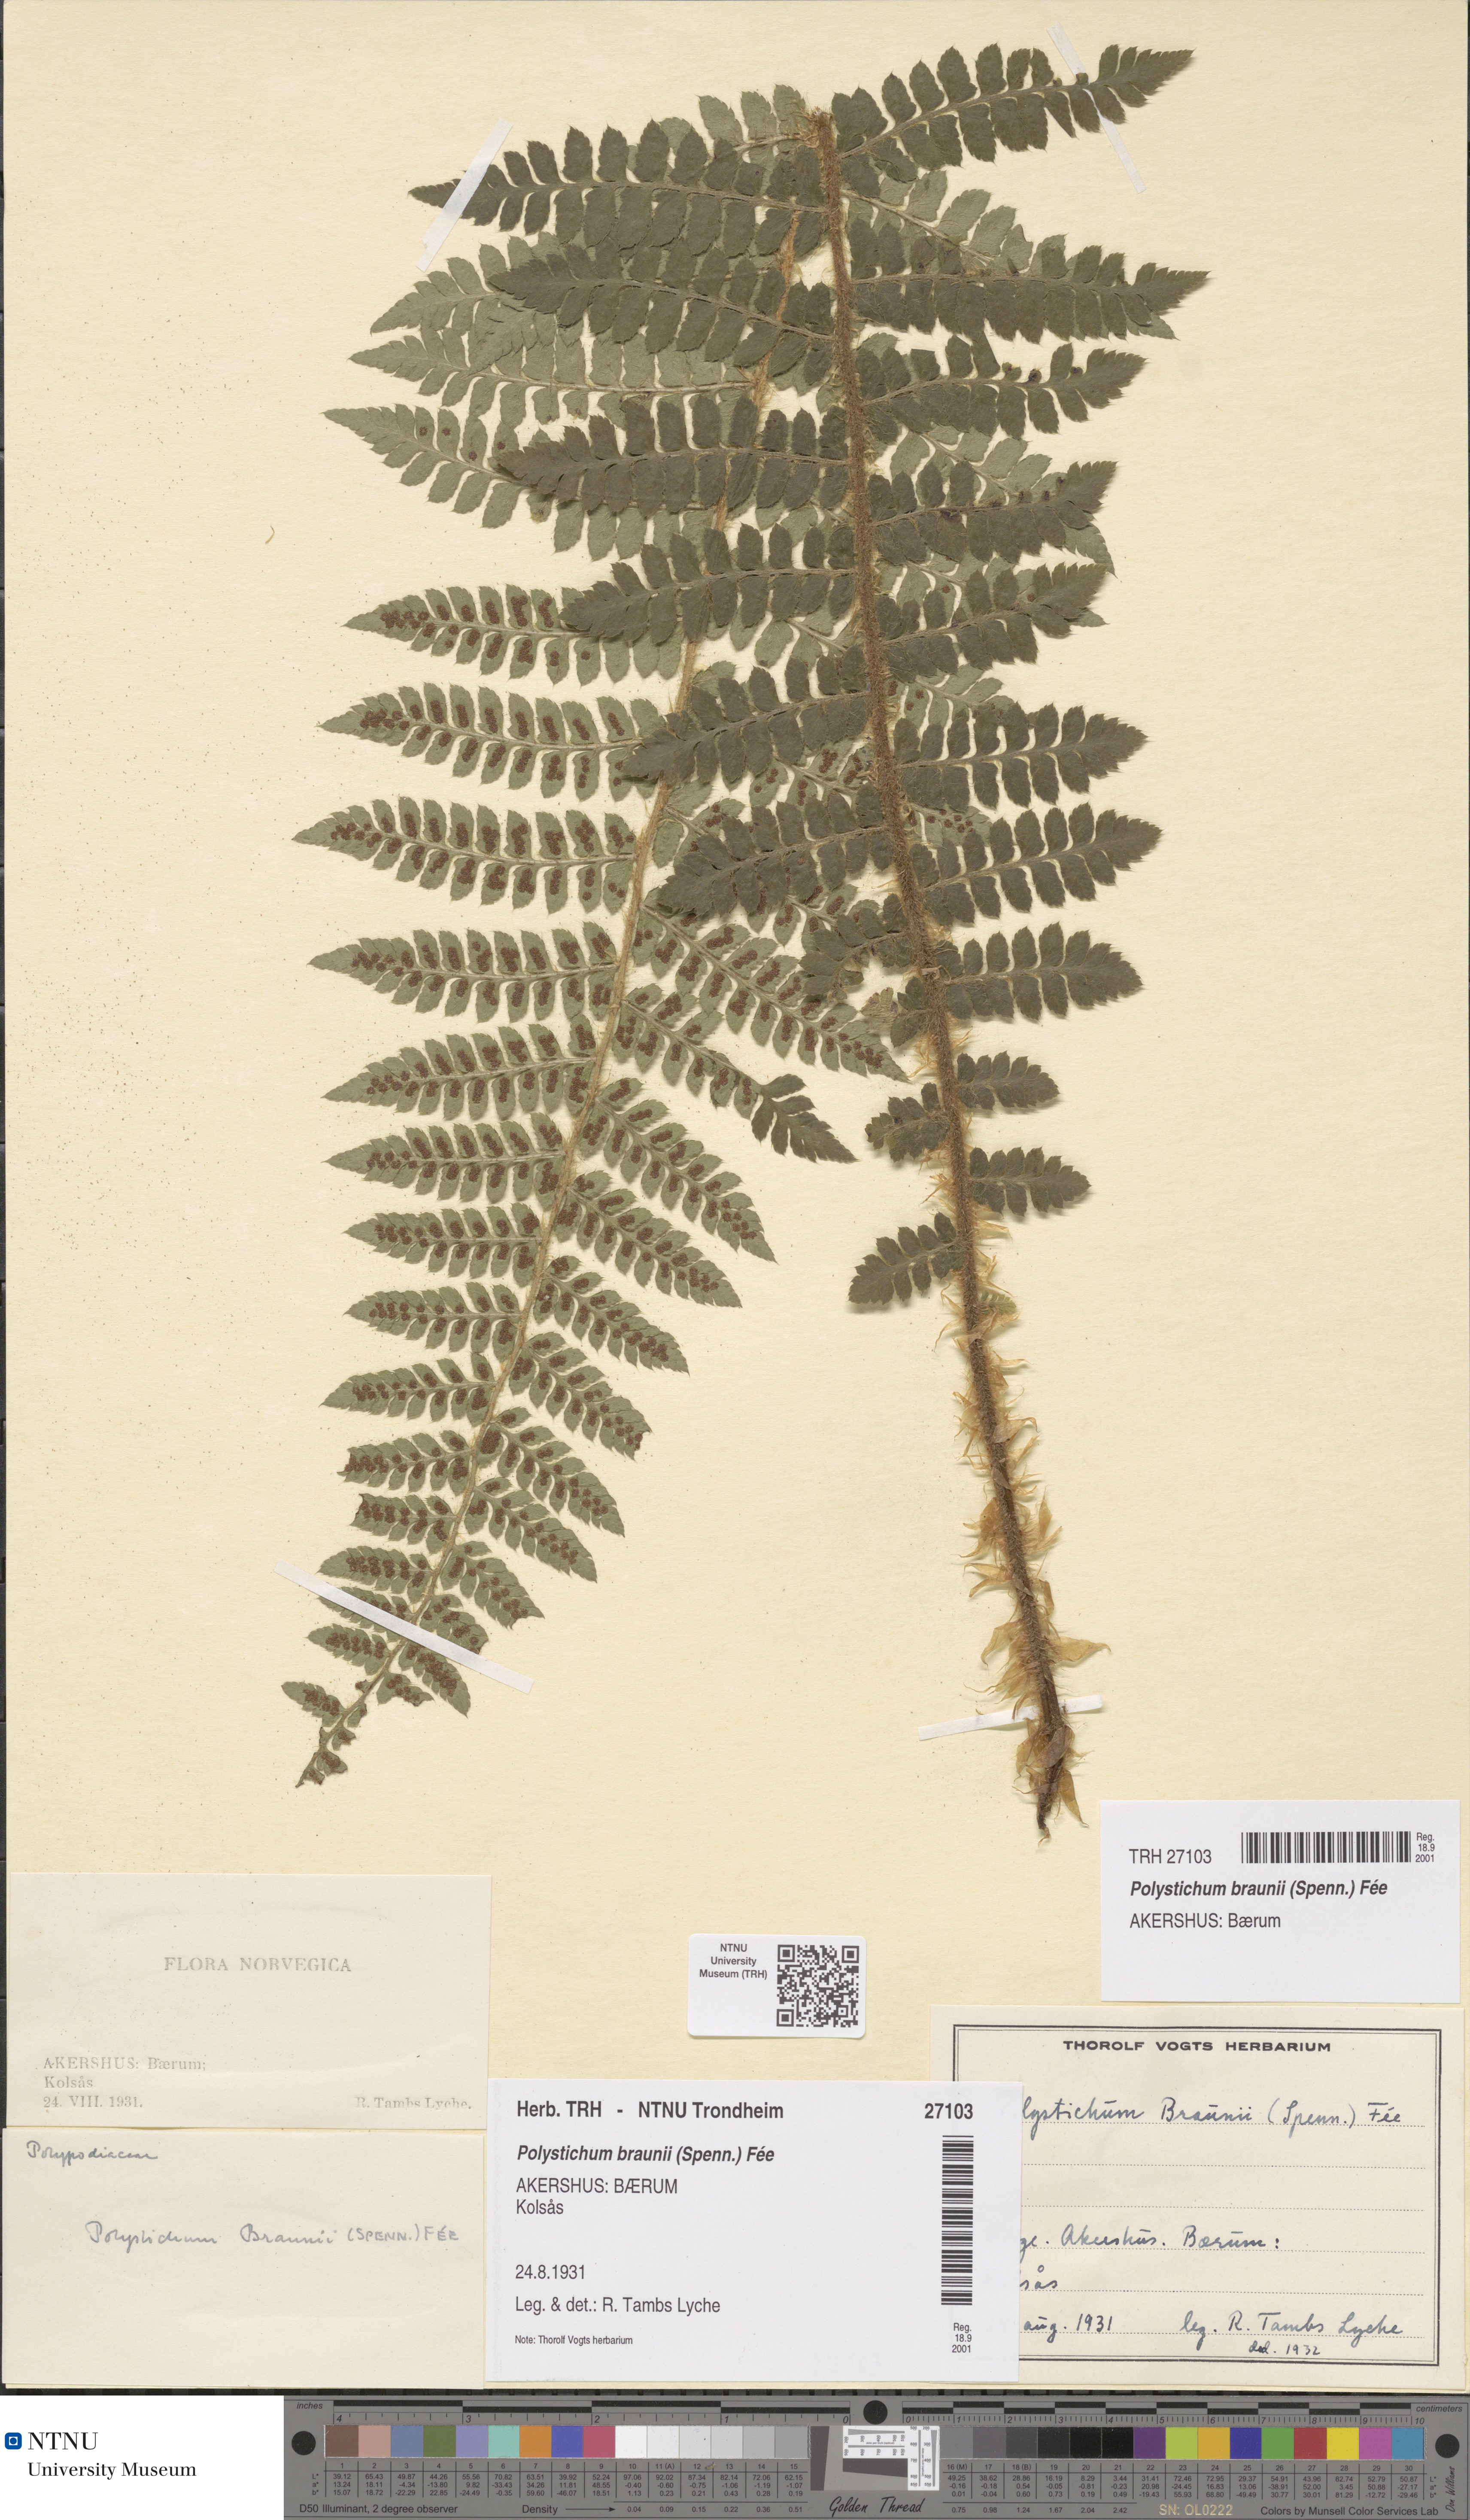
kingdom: Plantae
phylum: Tracheophyta
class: Polypodiopsida
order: Polypodiales
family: Dryopteridaceae
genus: Polystichum
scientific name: Polystichum braunii
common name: Braun's holly fern
